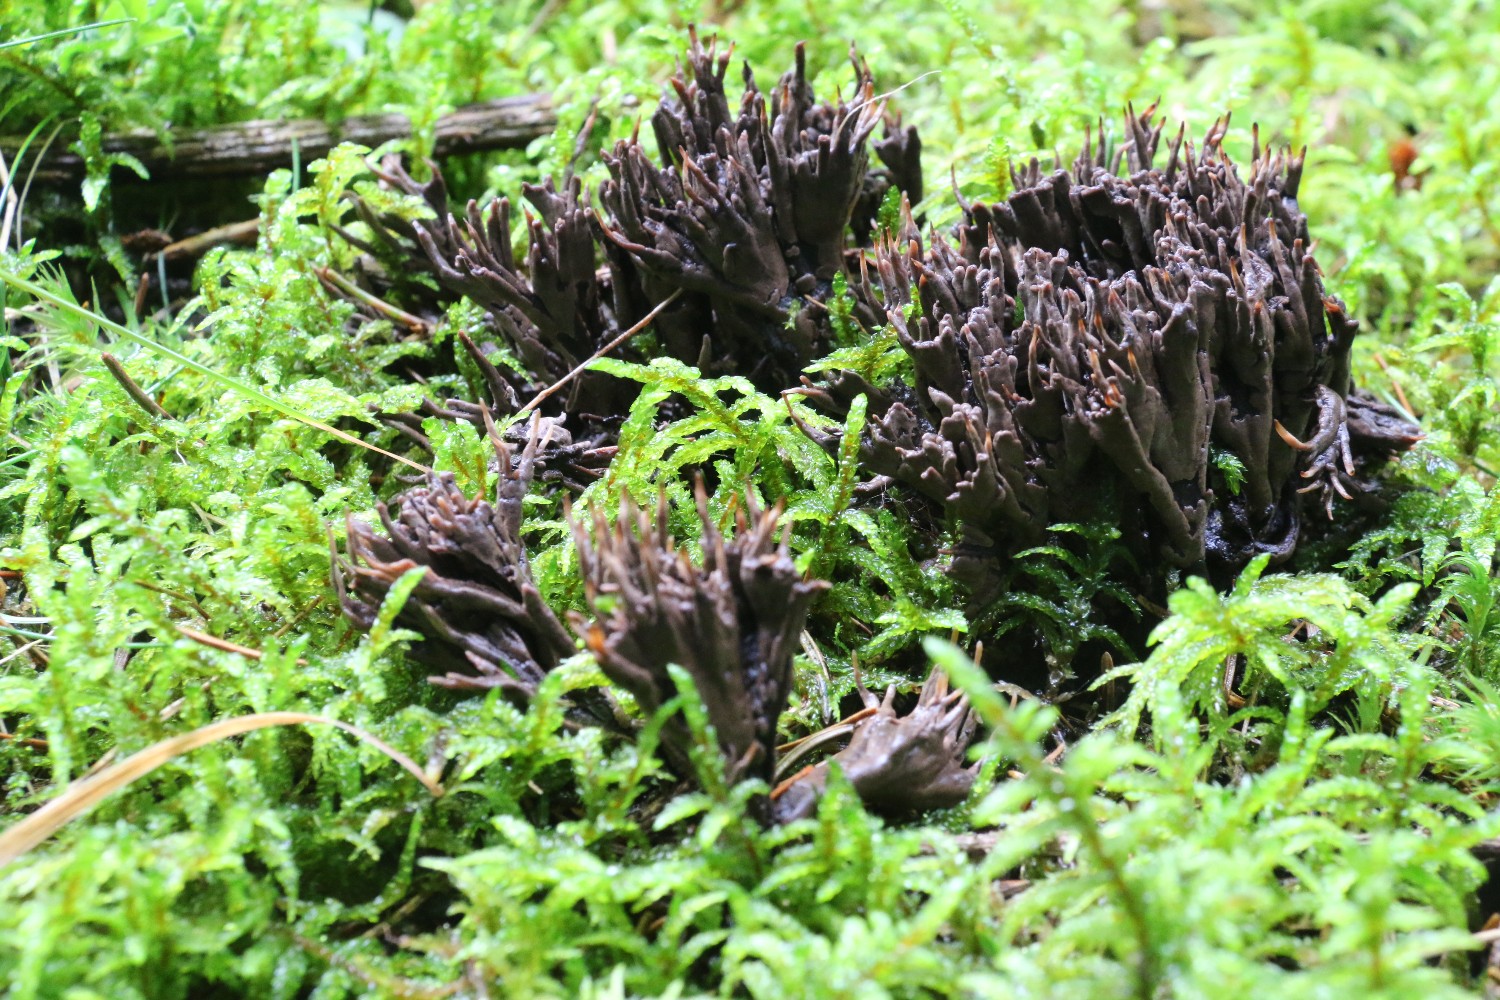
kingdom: Fungi
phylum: Basidiomycota
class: Agaricomycetes
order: Thelephorales
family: Thelephoraceae
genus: Thelephora
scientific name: Thelephora palmata
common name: grenet frynsesvamp
